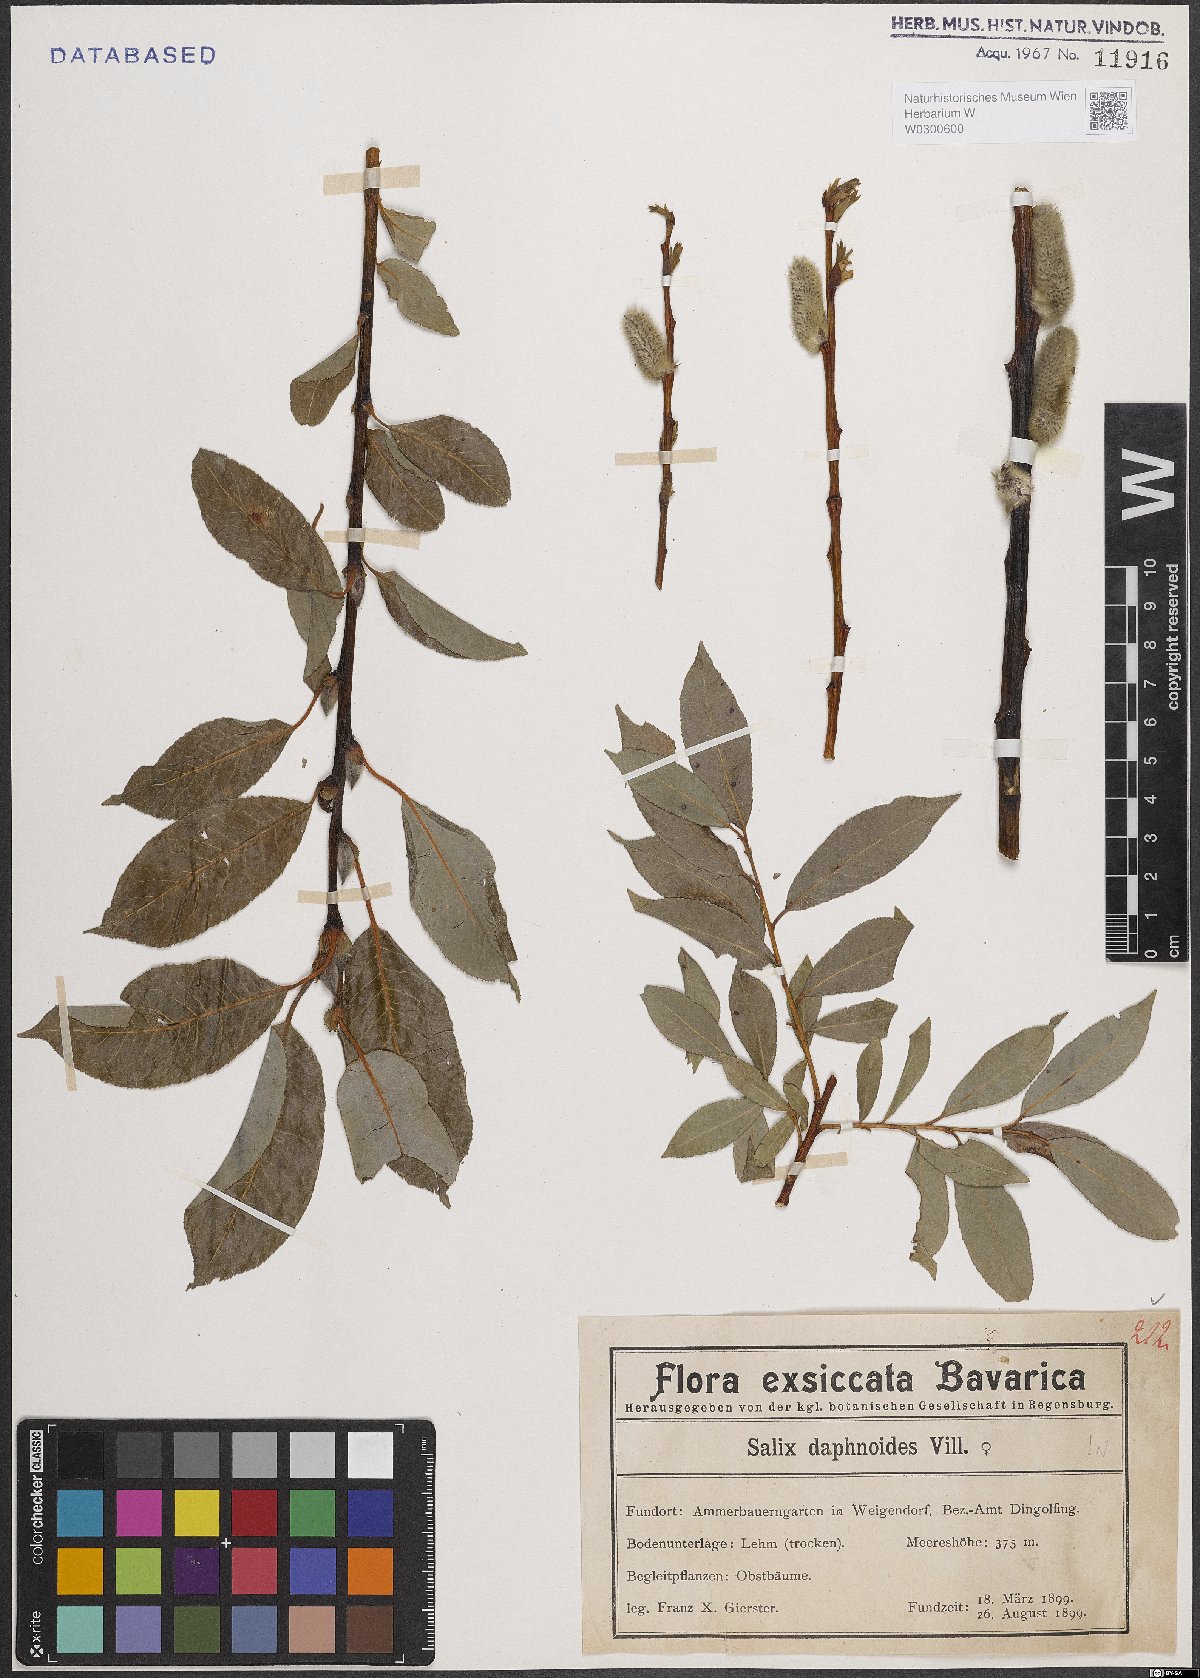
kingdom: Plantae
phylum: Tracheophyta
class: Magnoliopsida
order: Malpighiales
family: Salicaceae
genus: Salix
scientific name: Salix daphnoides
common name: European violet-willow
